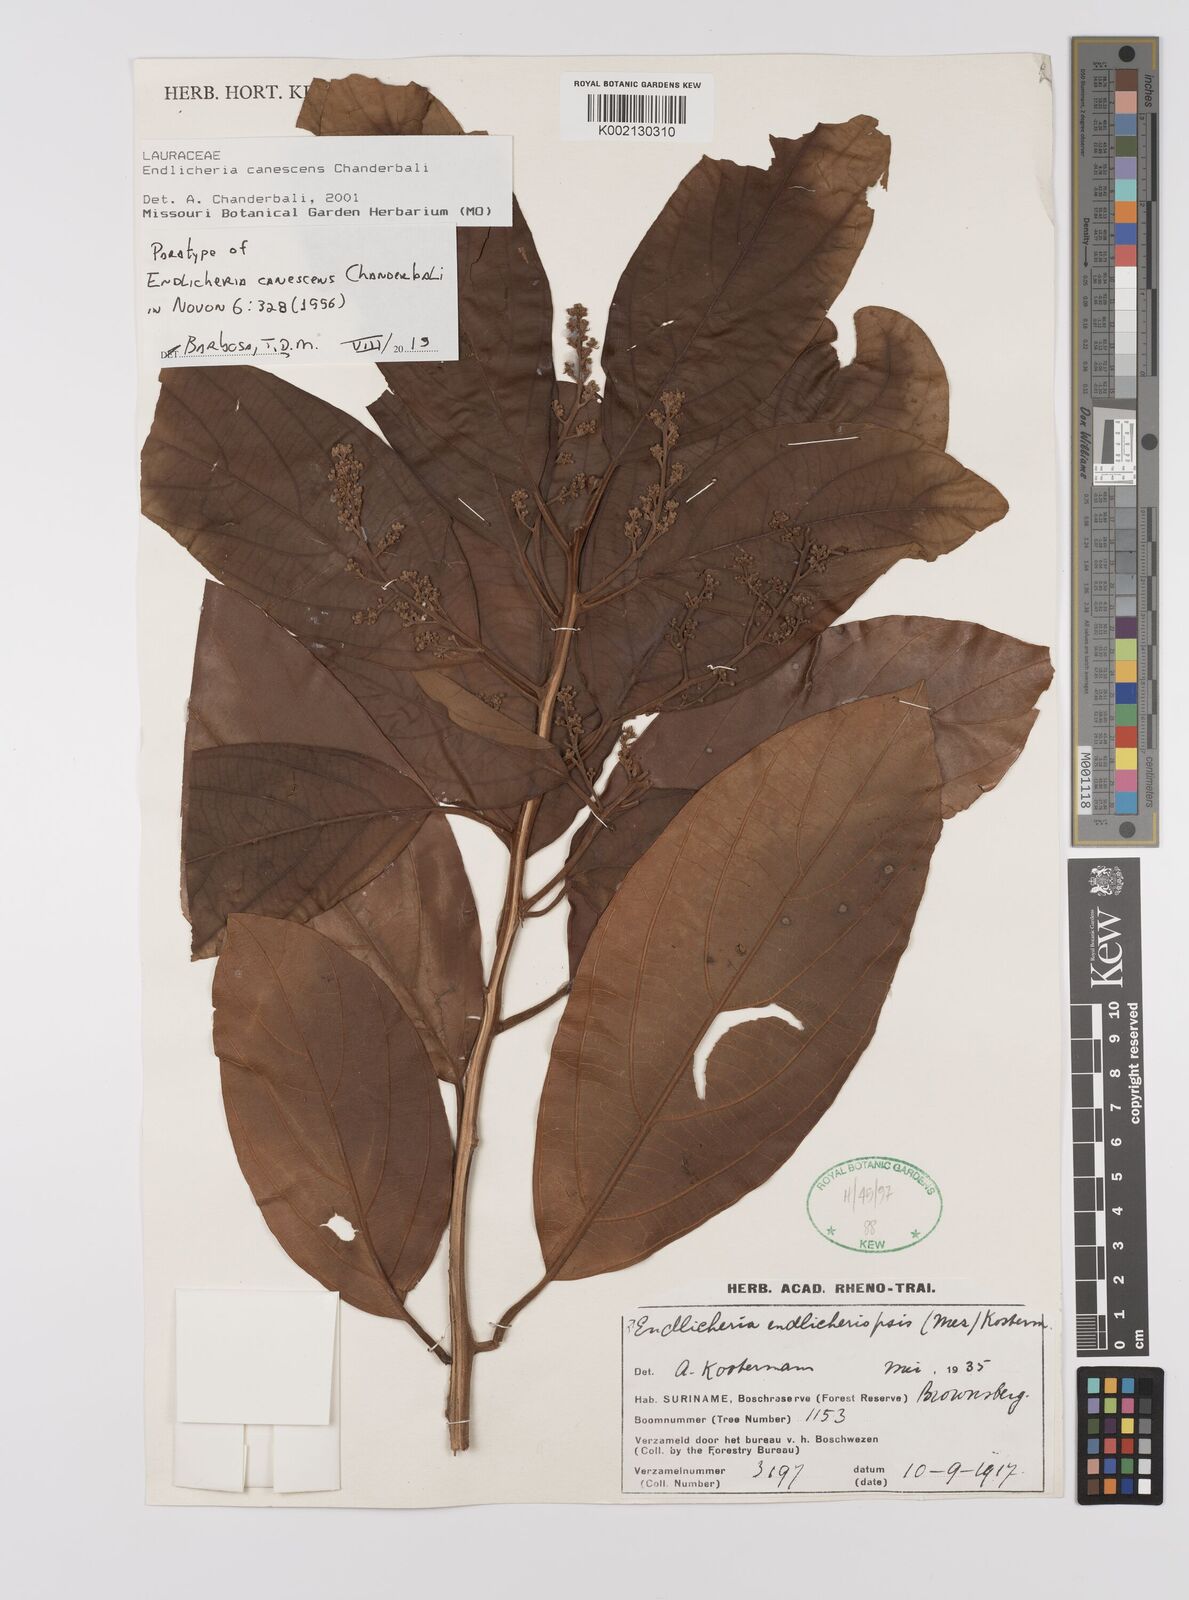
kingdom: Plantae
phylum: Tracheophyta
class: Magnoliopsida
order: Laurales
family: Lauraceae
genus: Endlicheria
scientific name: Endlicheria canescens
